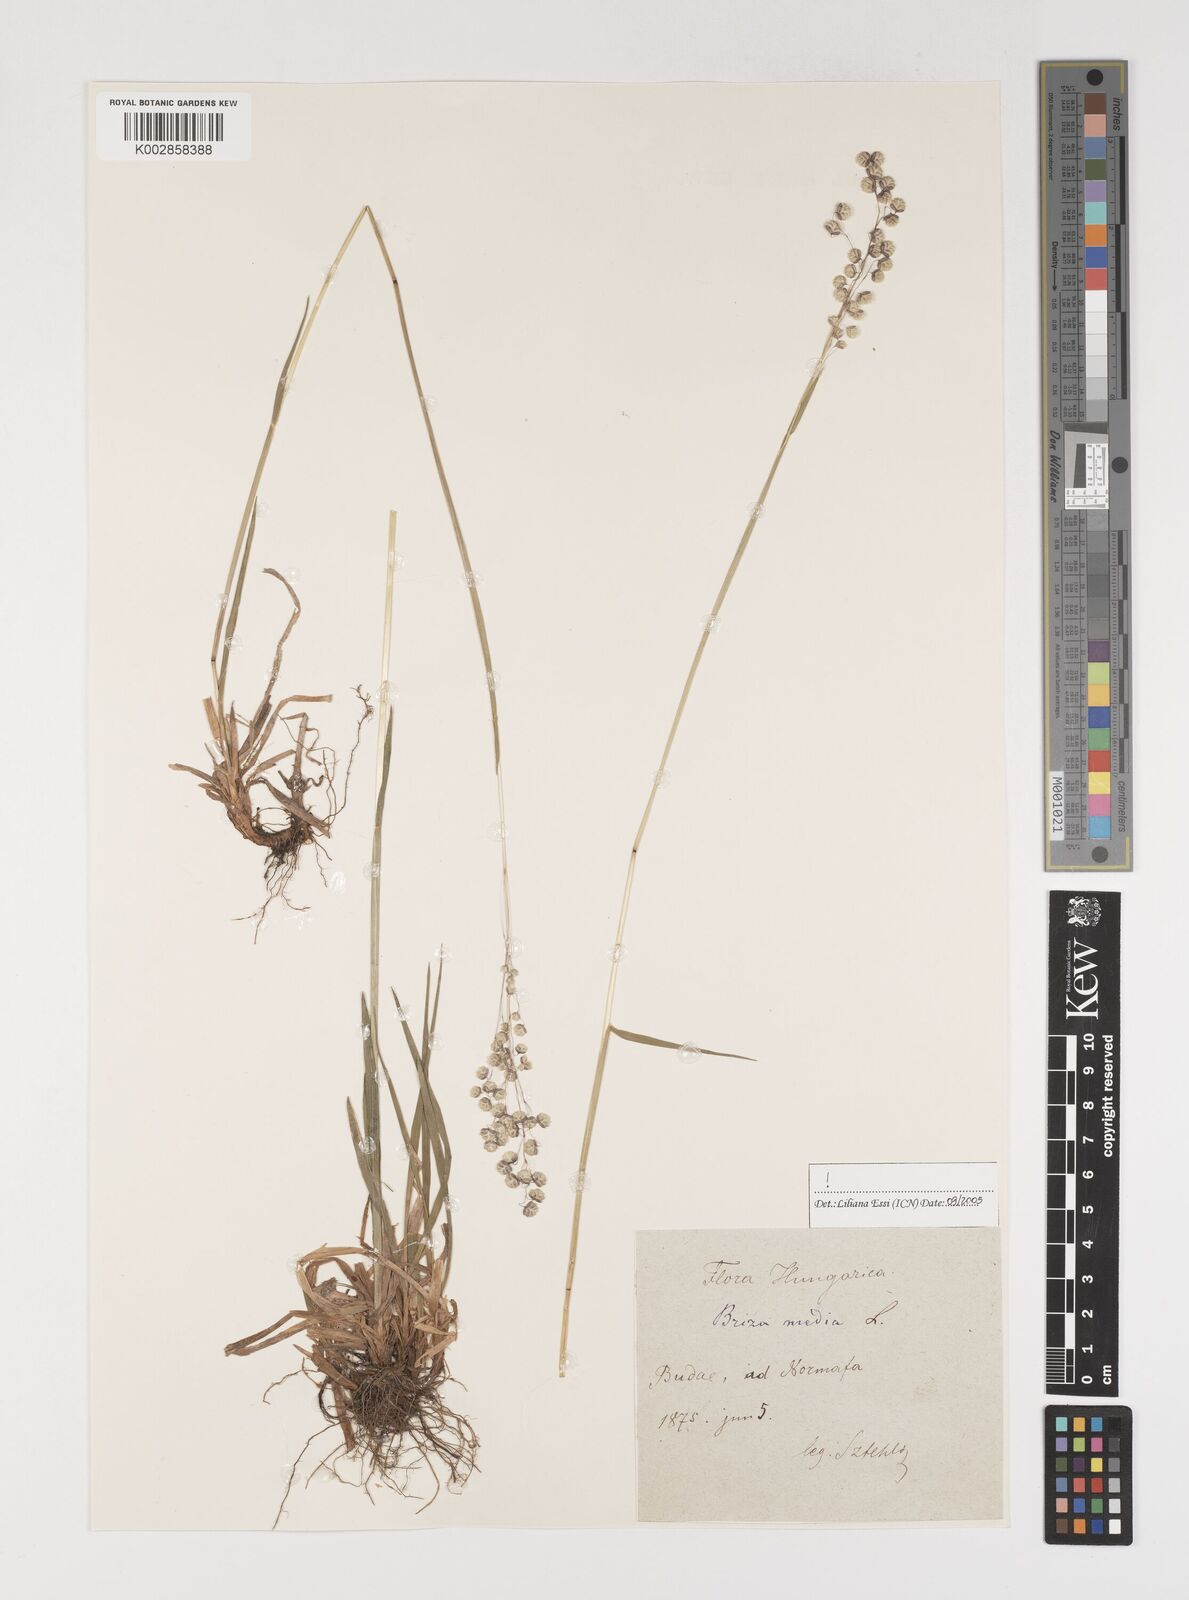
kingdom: Plantae
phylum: Tracheophyta
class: Liliopsida
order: Poales
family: Poaceae
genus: Briza
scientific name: Briza media
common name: Quaking grass
